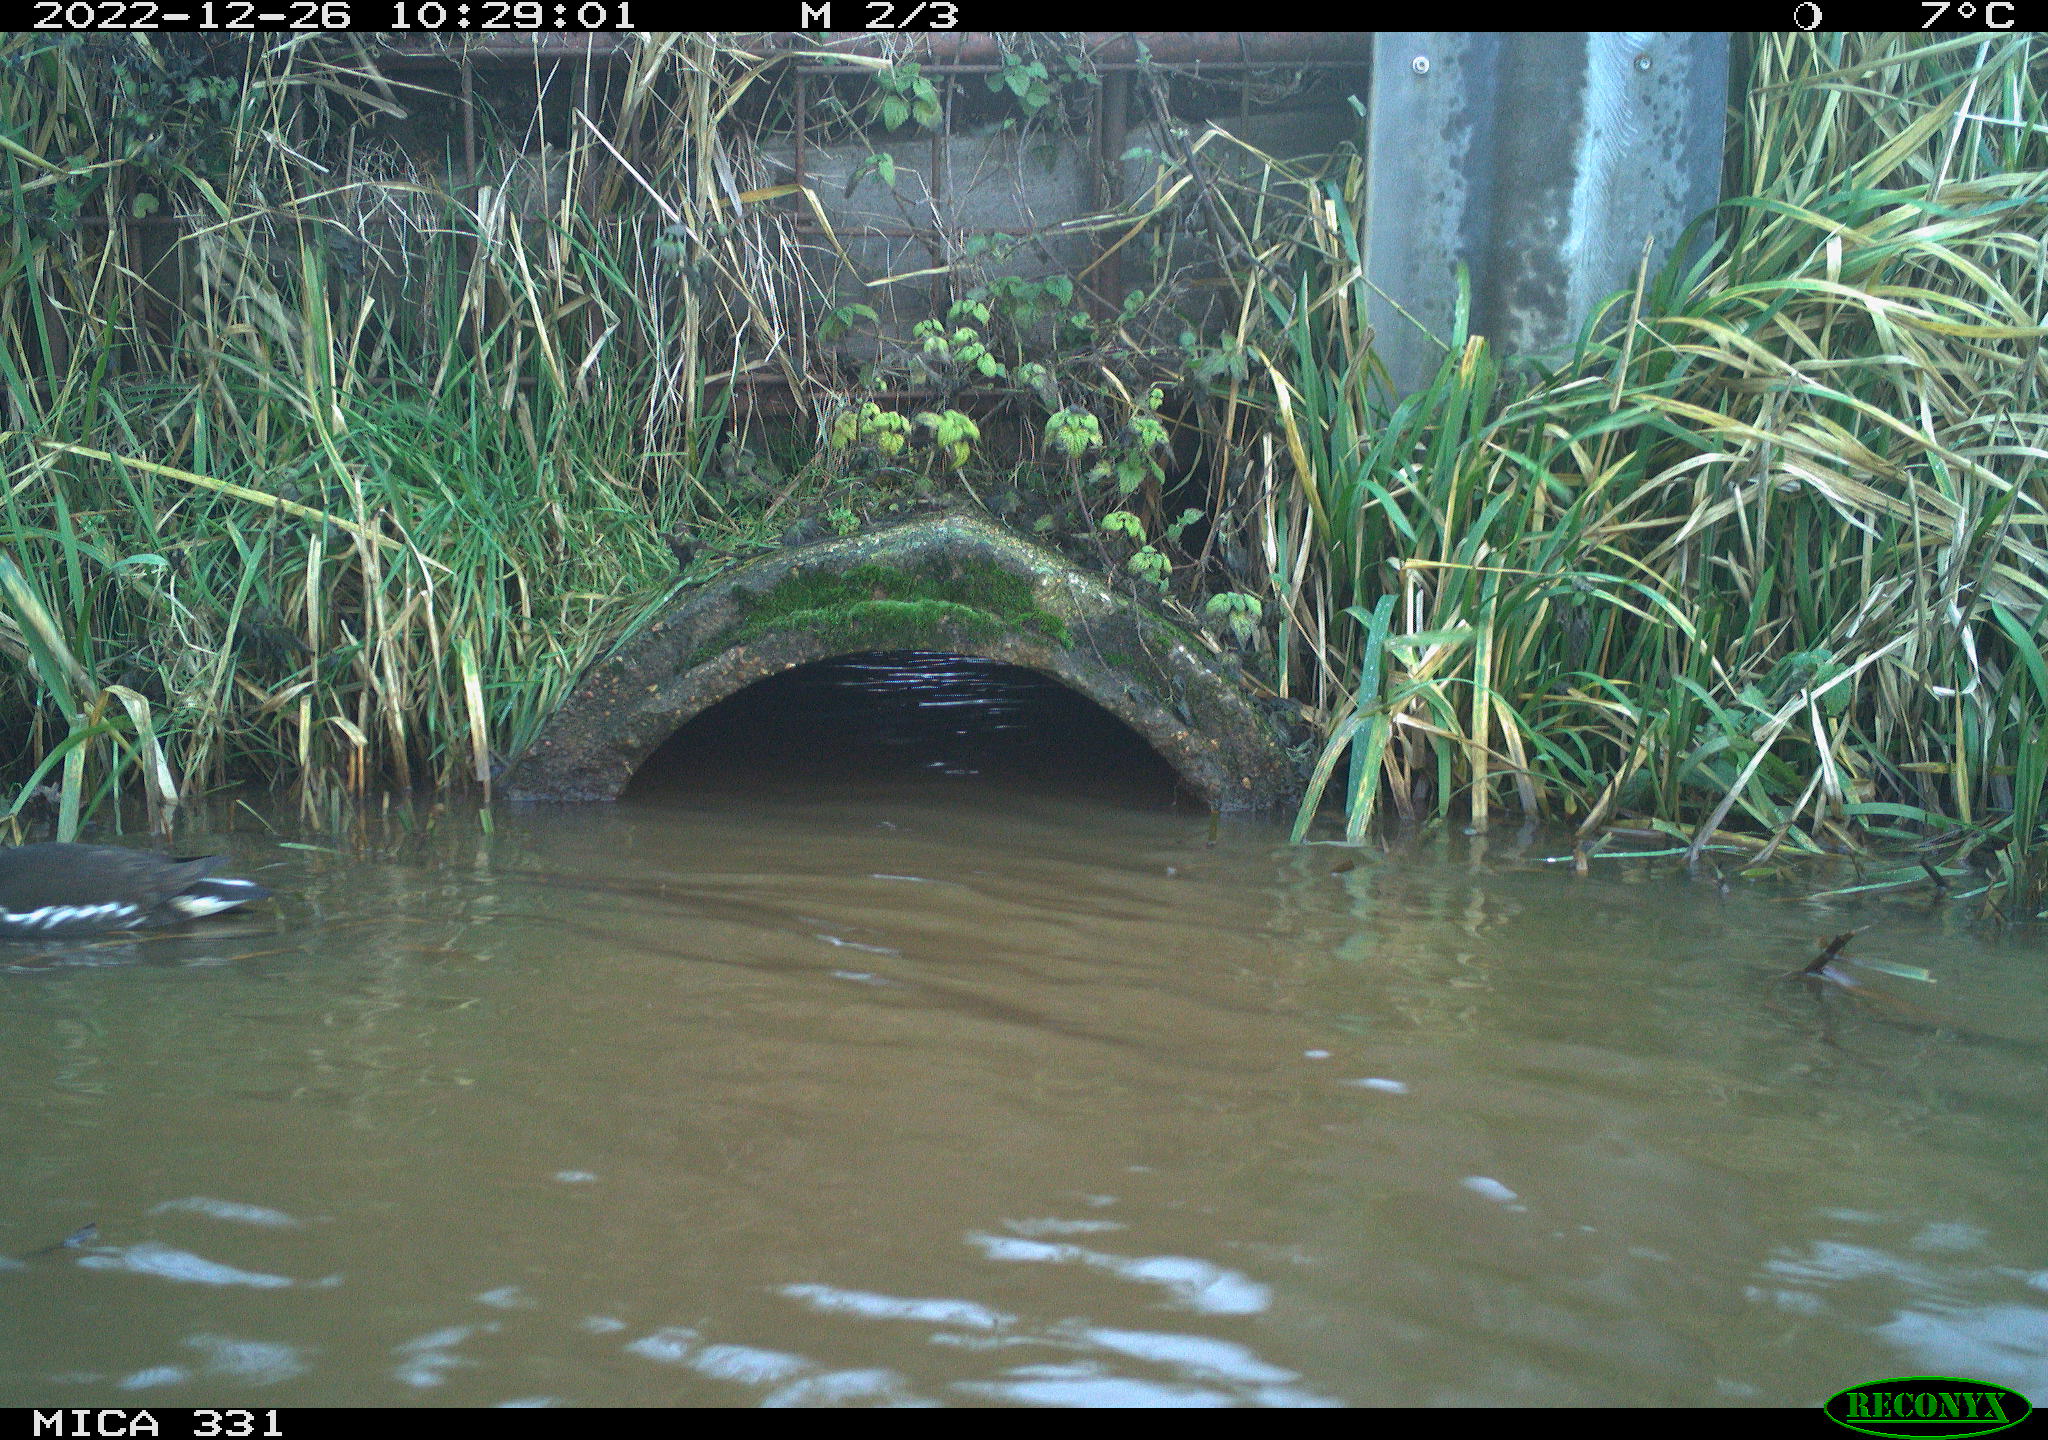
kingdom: Animalia
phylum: Chordata
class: Aves
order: Gruiformes
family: Rallidae
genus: Gallinula
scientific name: Gallinula chloropus
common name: Common moorhen
